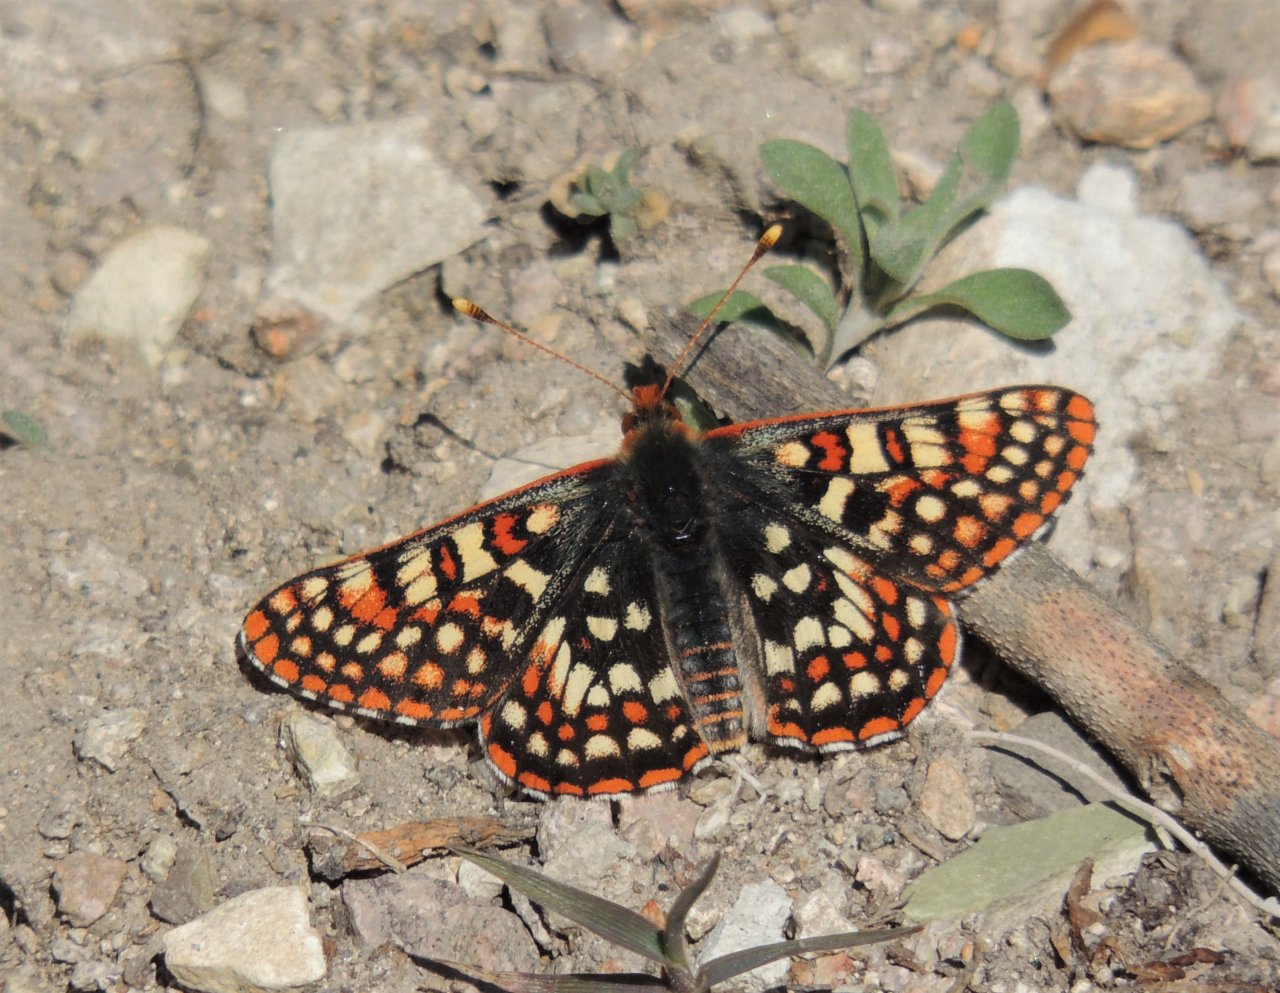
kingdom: Animalia
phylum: Arthropoda
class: Insecta
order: Lepidoptera
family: Nymphalidae
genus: Occidryas
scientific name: Occidryas anicia
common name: Anicia Checkerspot
